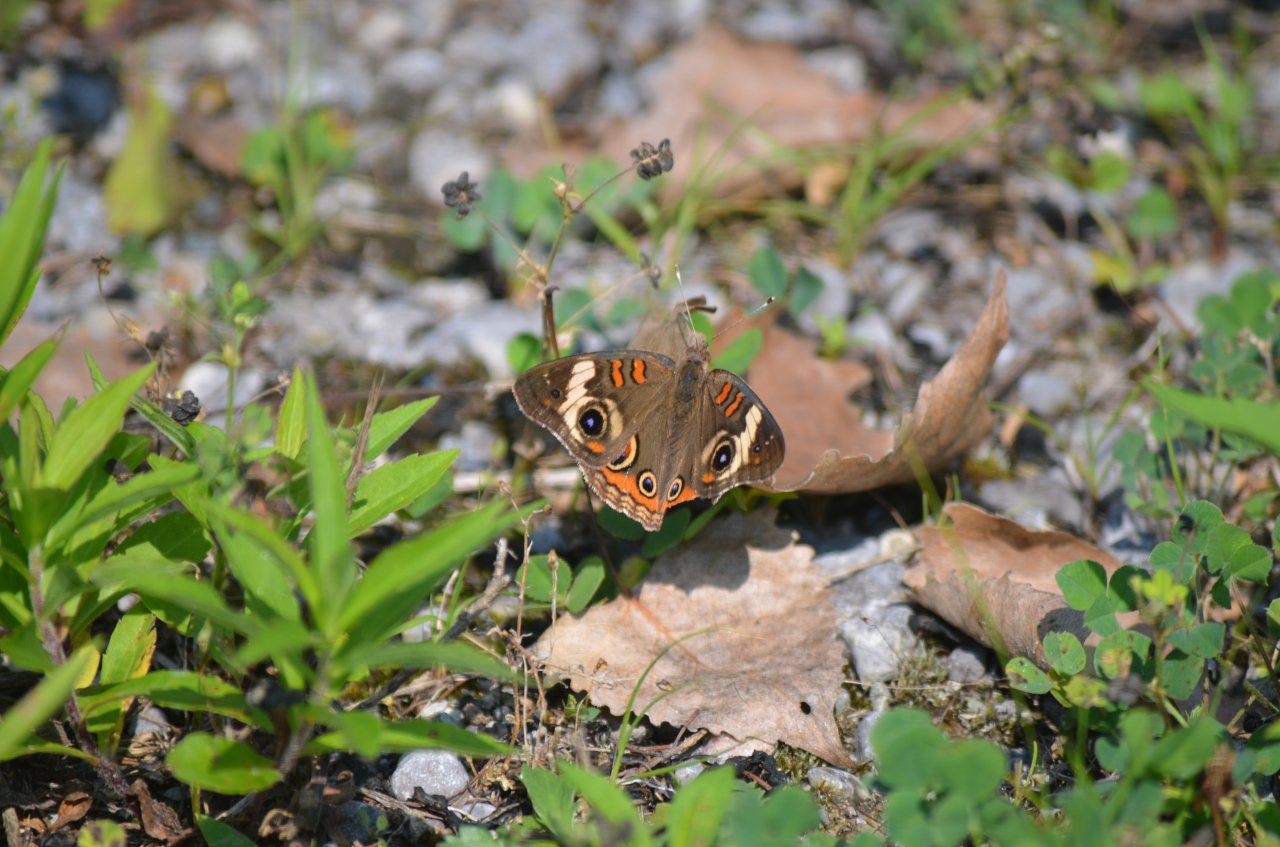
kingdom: Animalia
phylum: Arthropoda
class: Insecta
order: Lepidoptera
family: Nymphalidae
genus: Junonia
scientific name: Junonia coenia
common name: Common Buckeye
